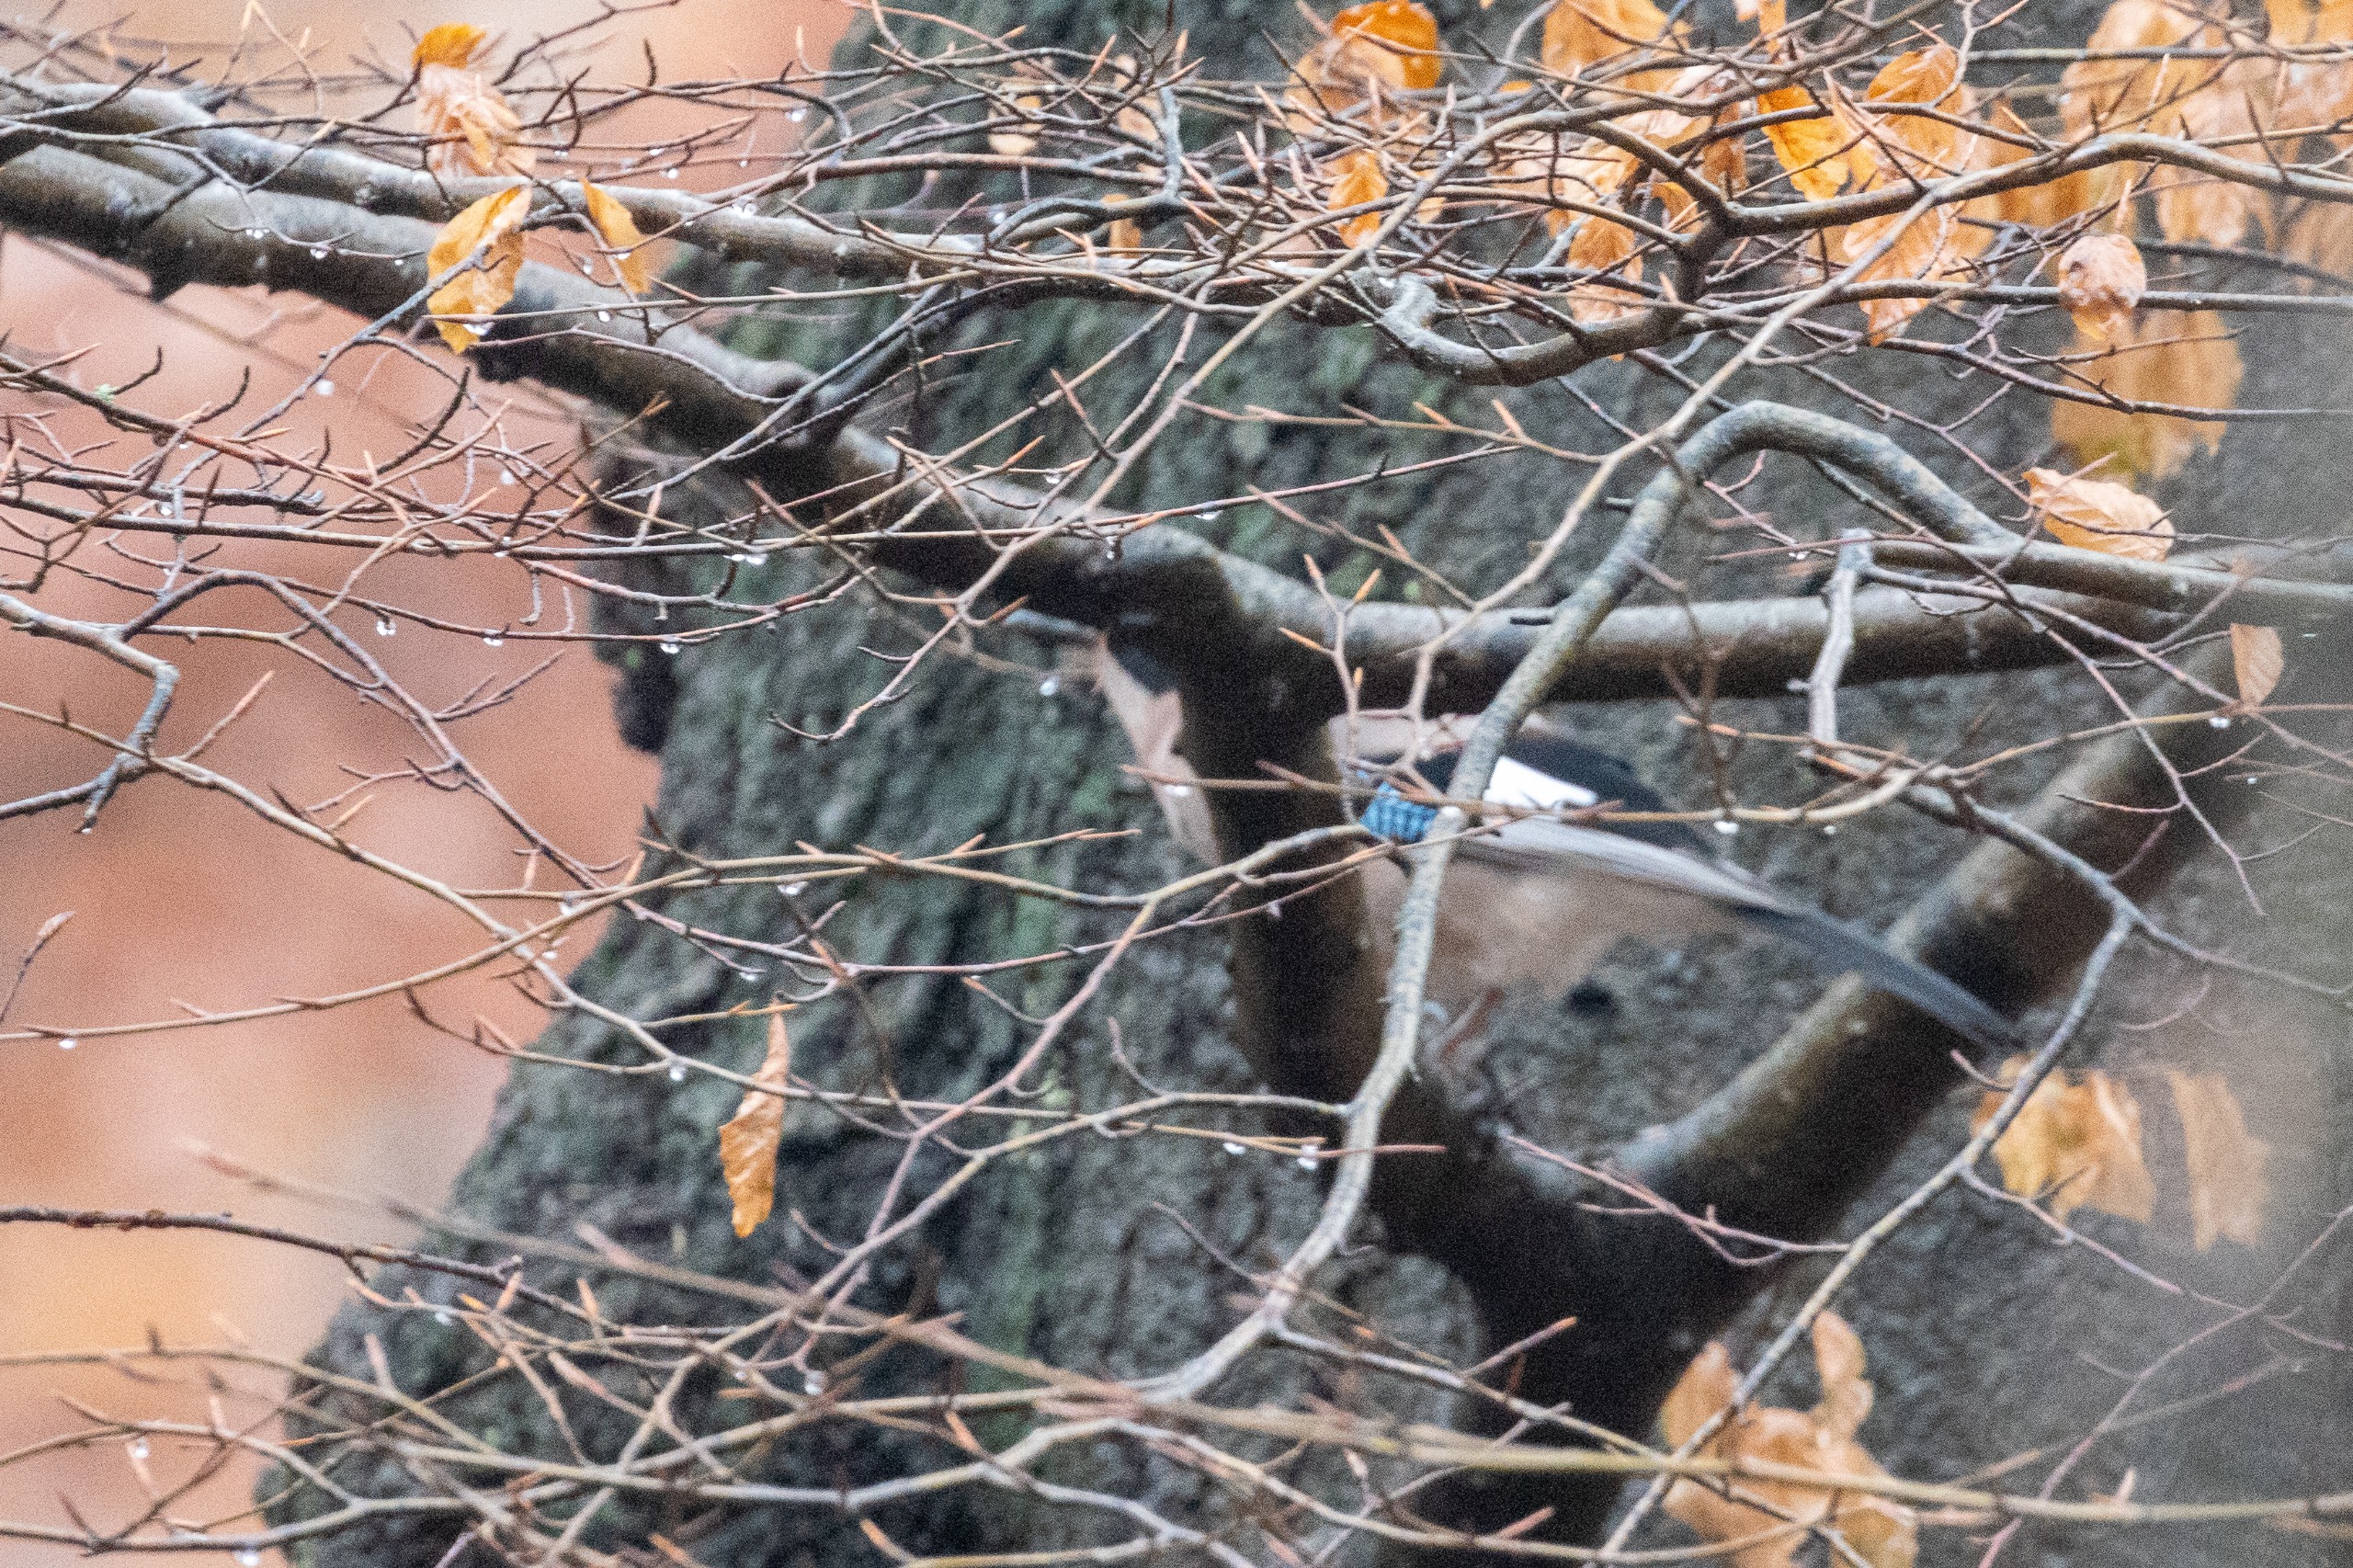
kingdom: Animalia
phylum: Chordata
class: Aves
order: Passeriformes
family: Corvidae
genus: Garrulus
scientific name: Garrulus glandarius
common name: Skovskade
